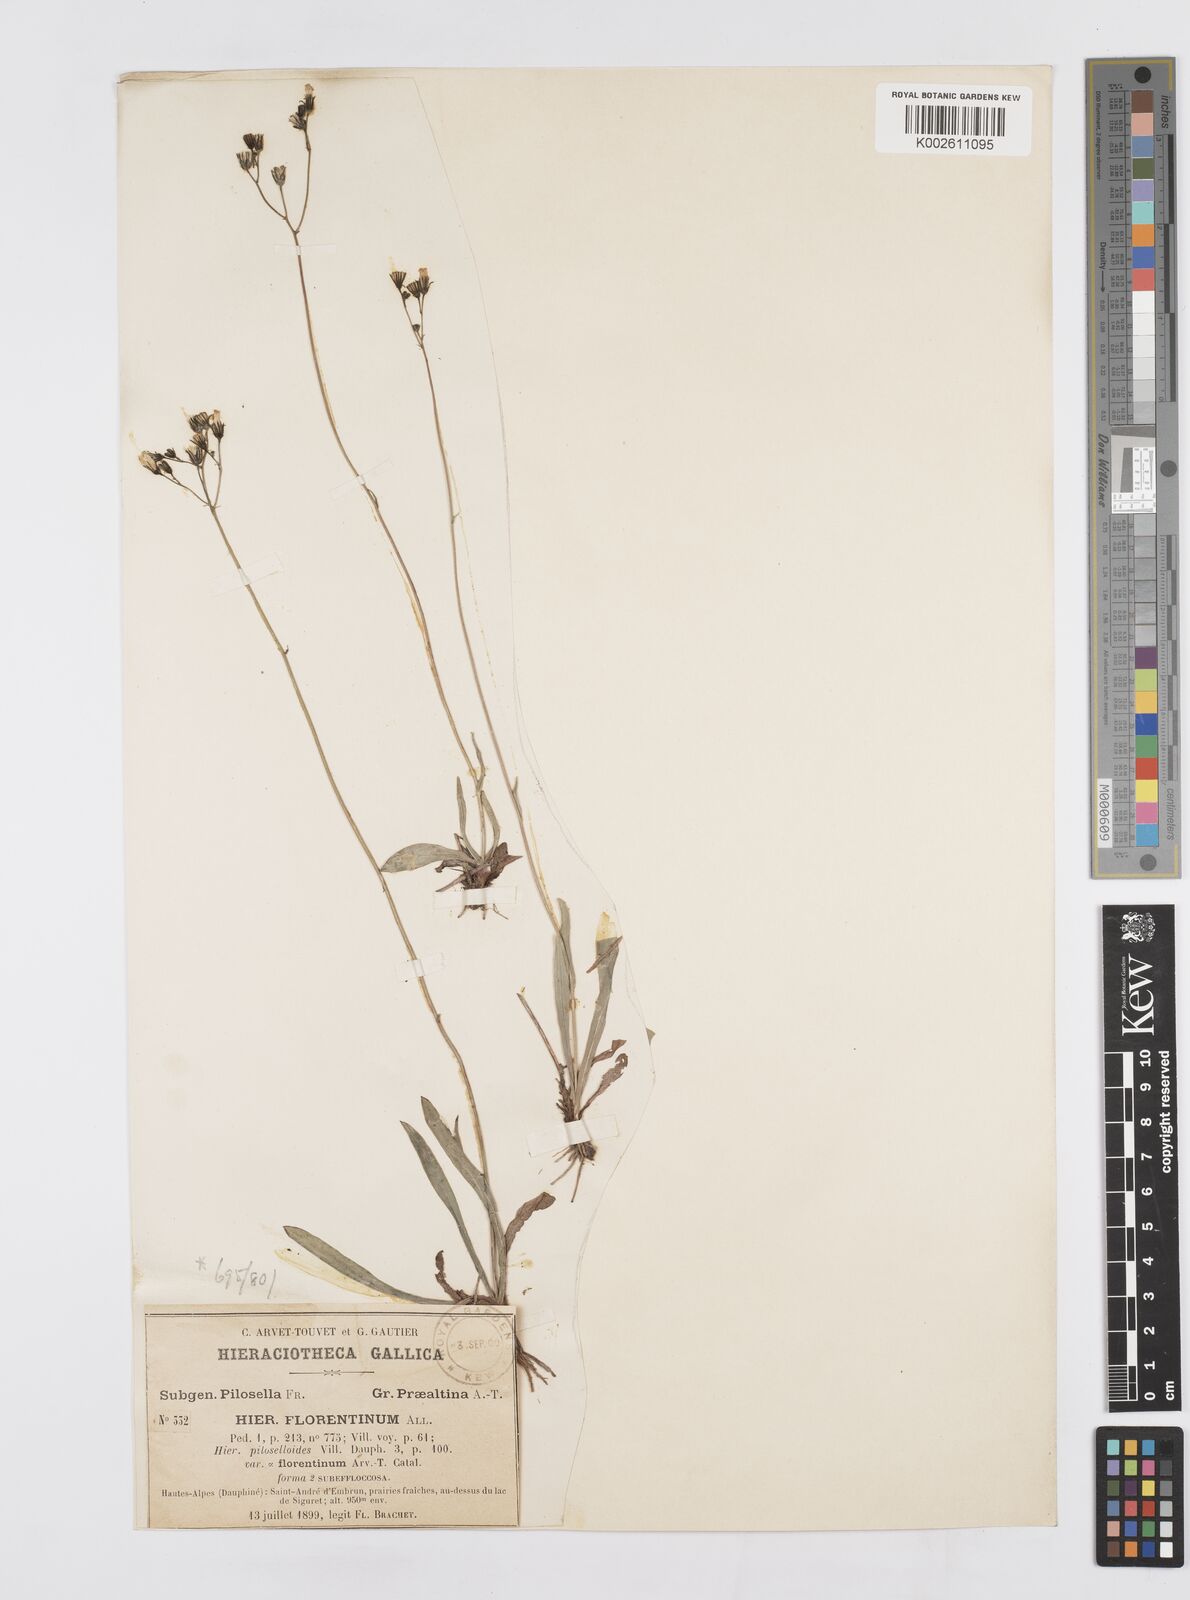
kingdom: Plantae
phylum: Tracheophyta
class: Magnoliopsida
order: Asterales
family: Asteraceae
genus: Pilosella
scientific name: Pilosella piloselloides
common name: Glaucous king-devil
